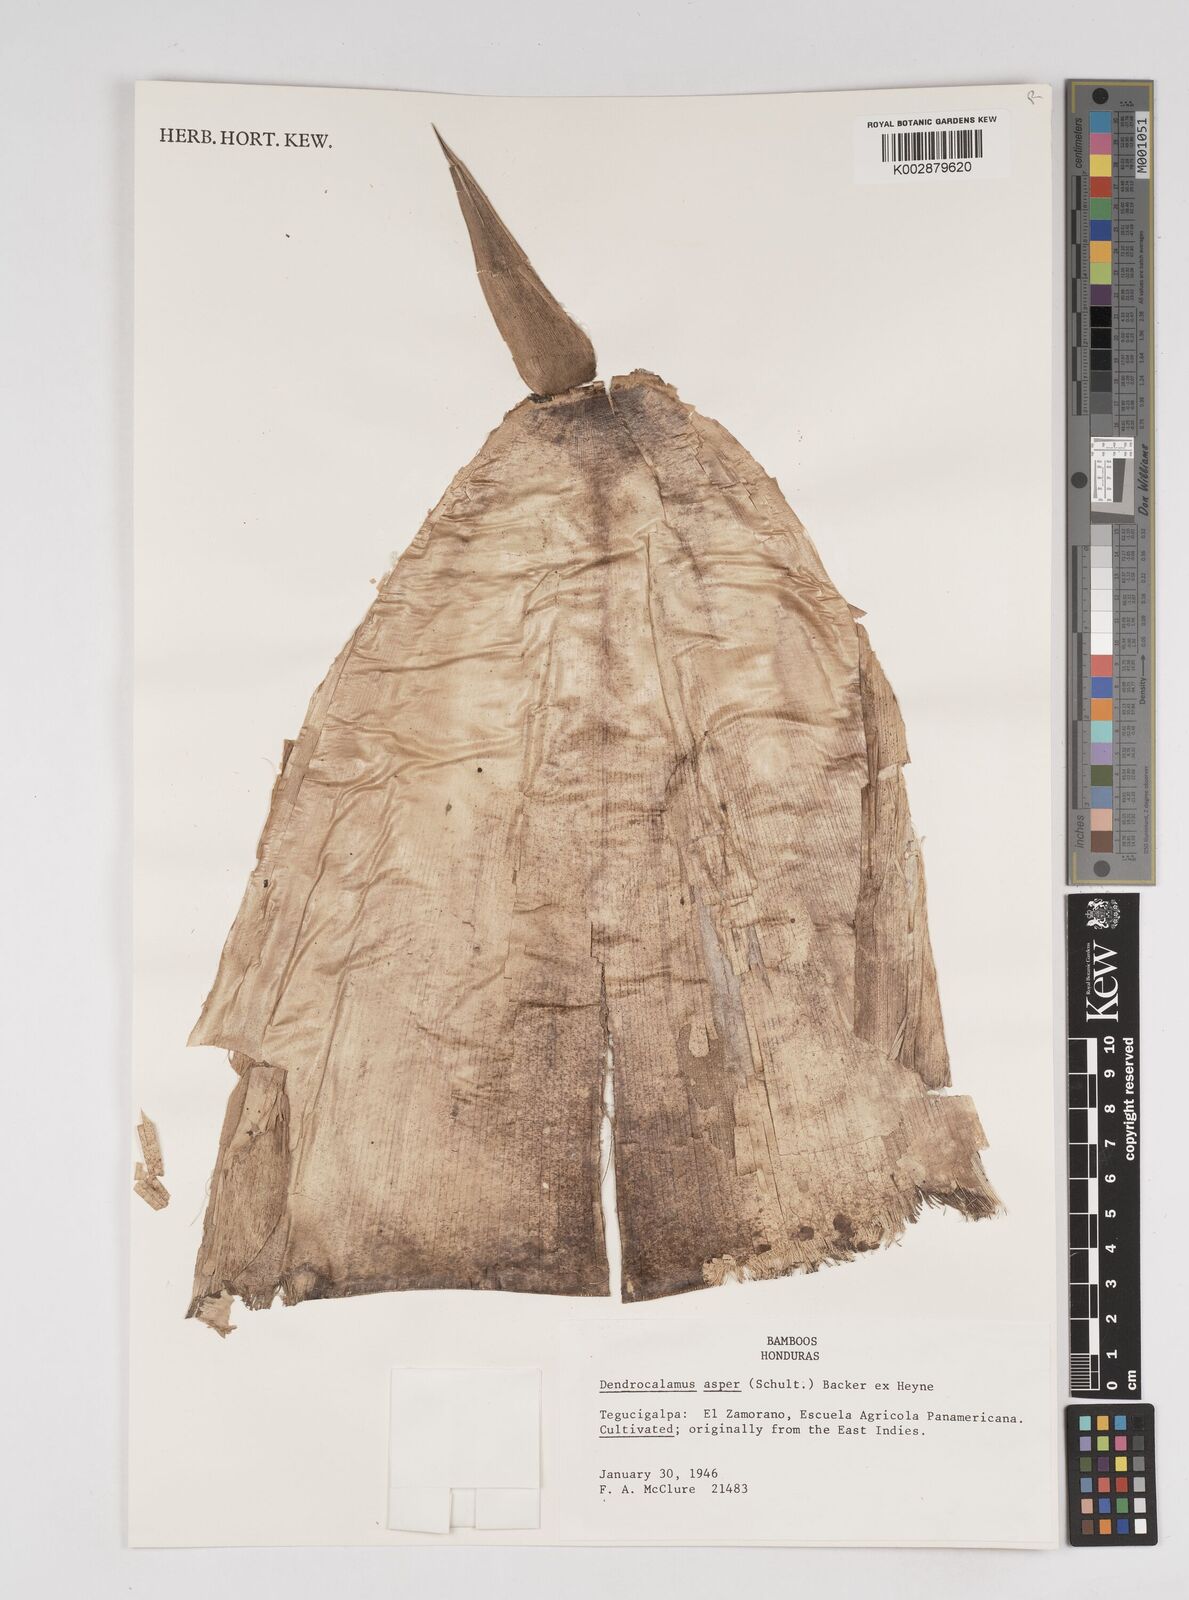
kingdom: Plantae
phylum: Tracheophyta
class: Liliopsida
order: Poales
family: Poaceae
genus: Dendrocalamus
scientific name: Dendrocalamus asper
